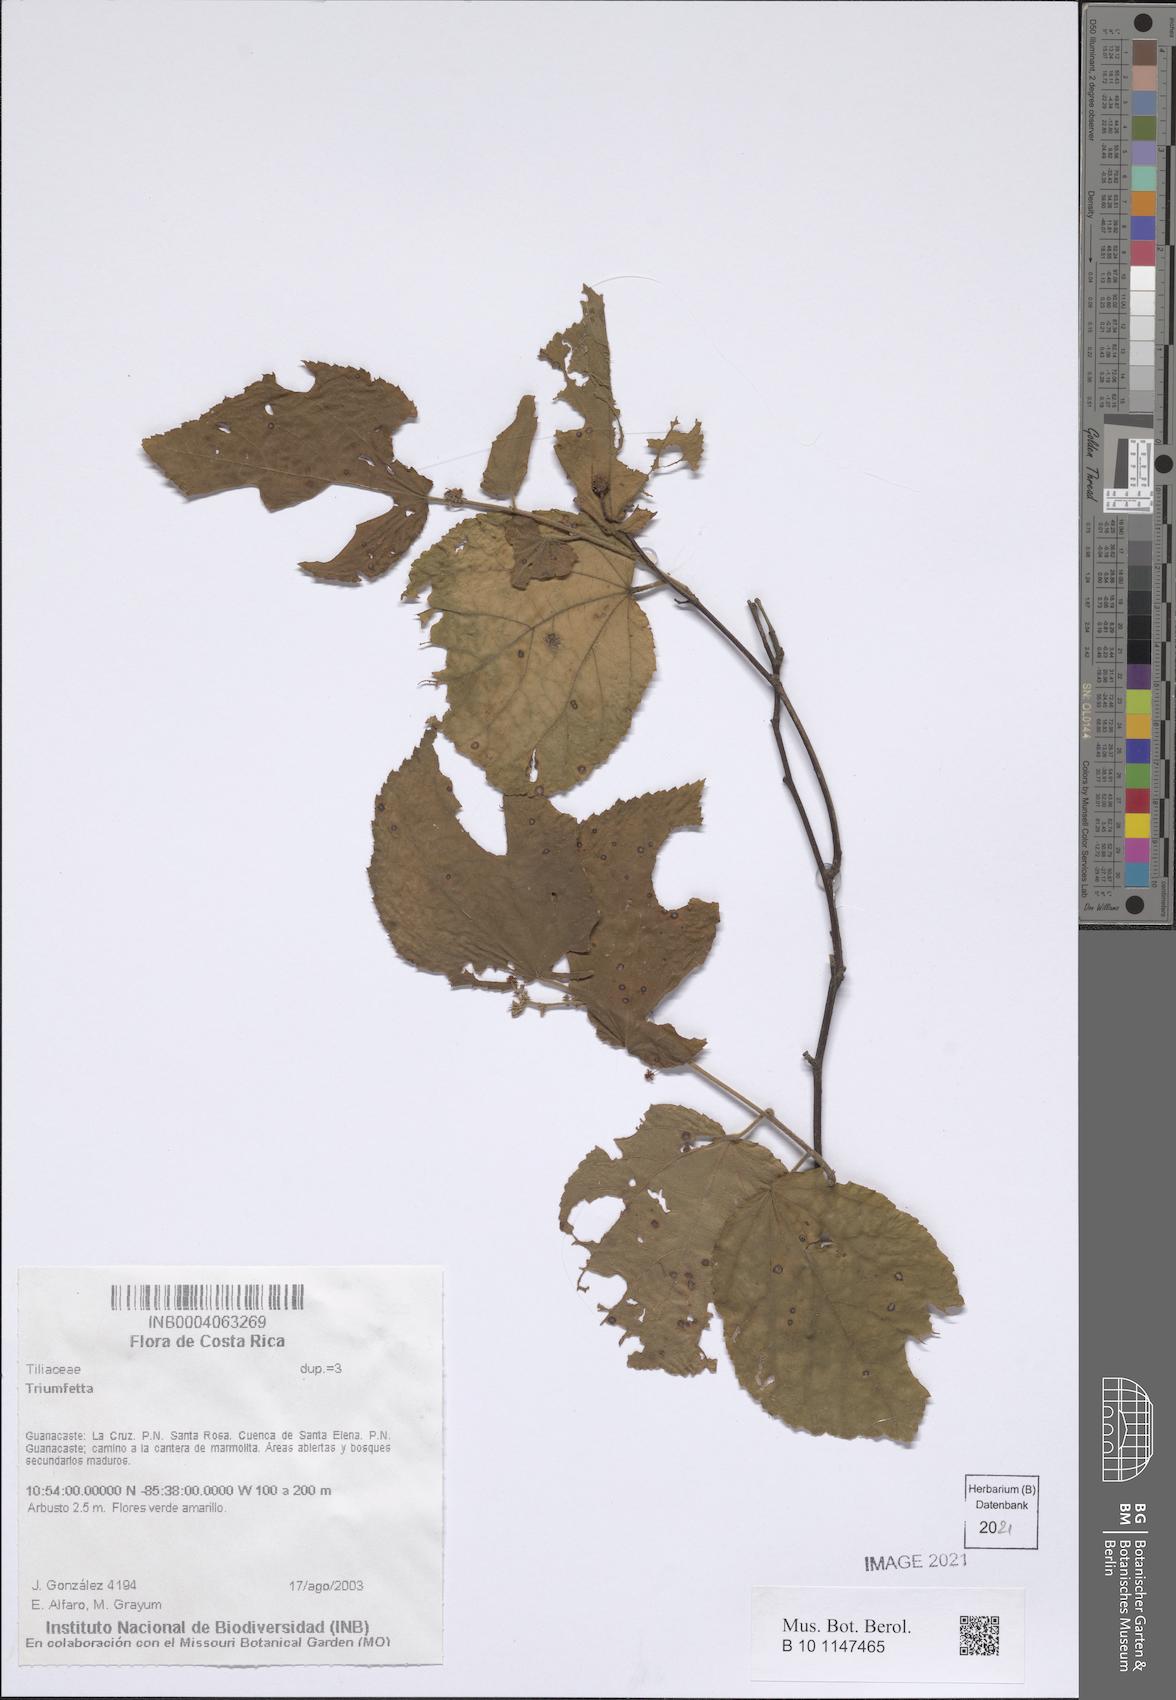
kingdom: Plantae
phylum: Tracheophyta
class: Magnoliopsida
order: Malvales
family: Malvaceae
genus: Triumfetta
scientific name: Triumfetta
